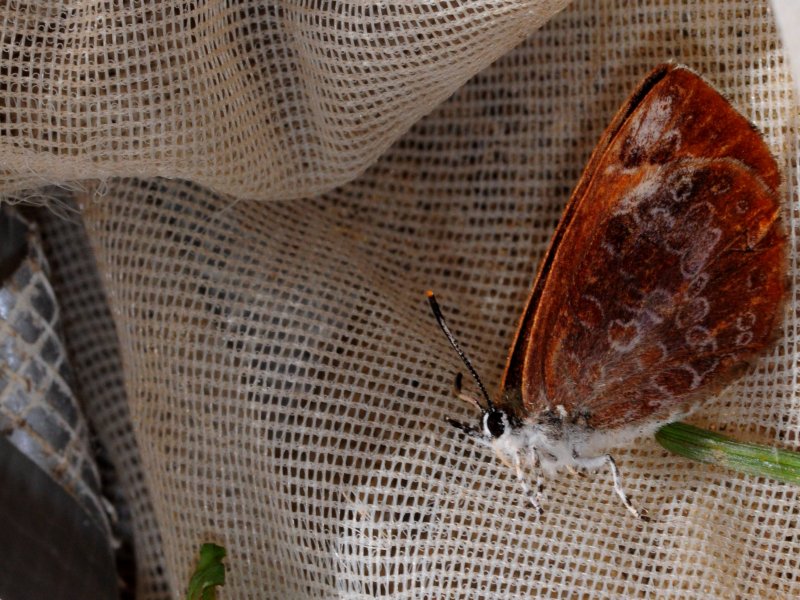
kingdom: Animalia
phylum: Arthropoda
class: Insecta
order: Lepidoptera
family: Lycaenidae
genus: Feniseca
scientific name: Feniseca tarquinius
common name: Harvester
